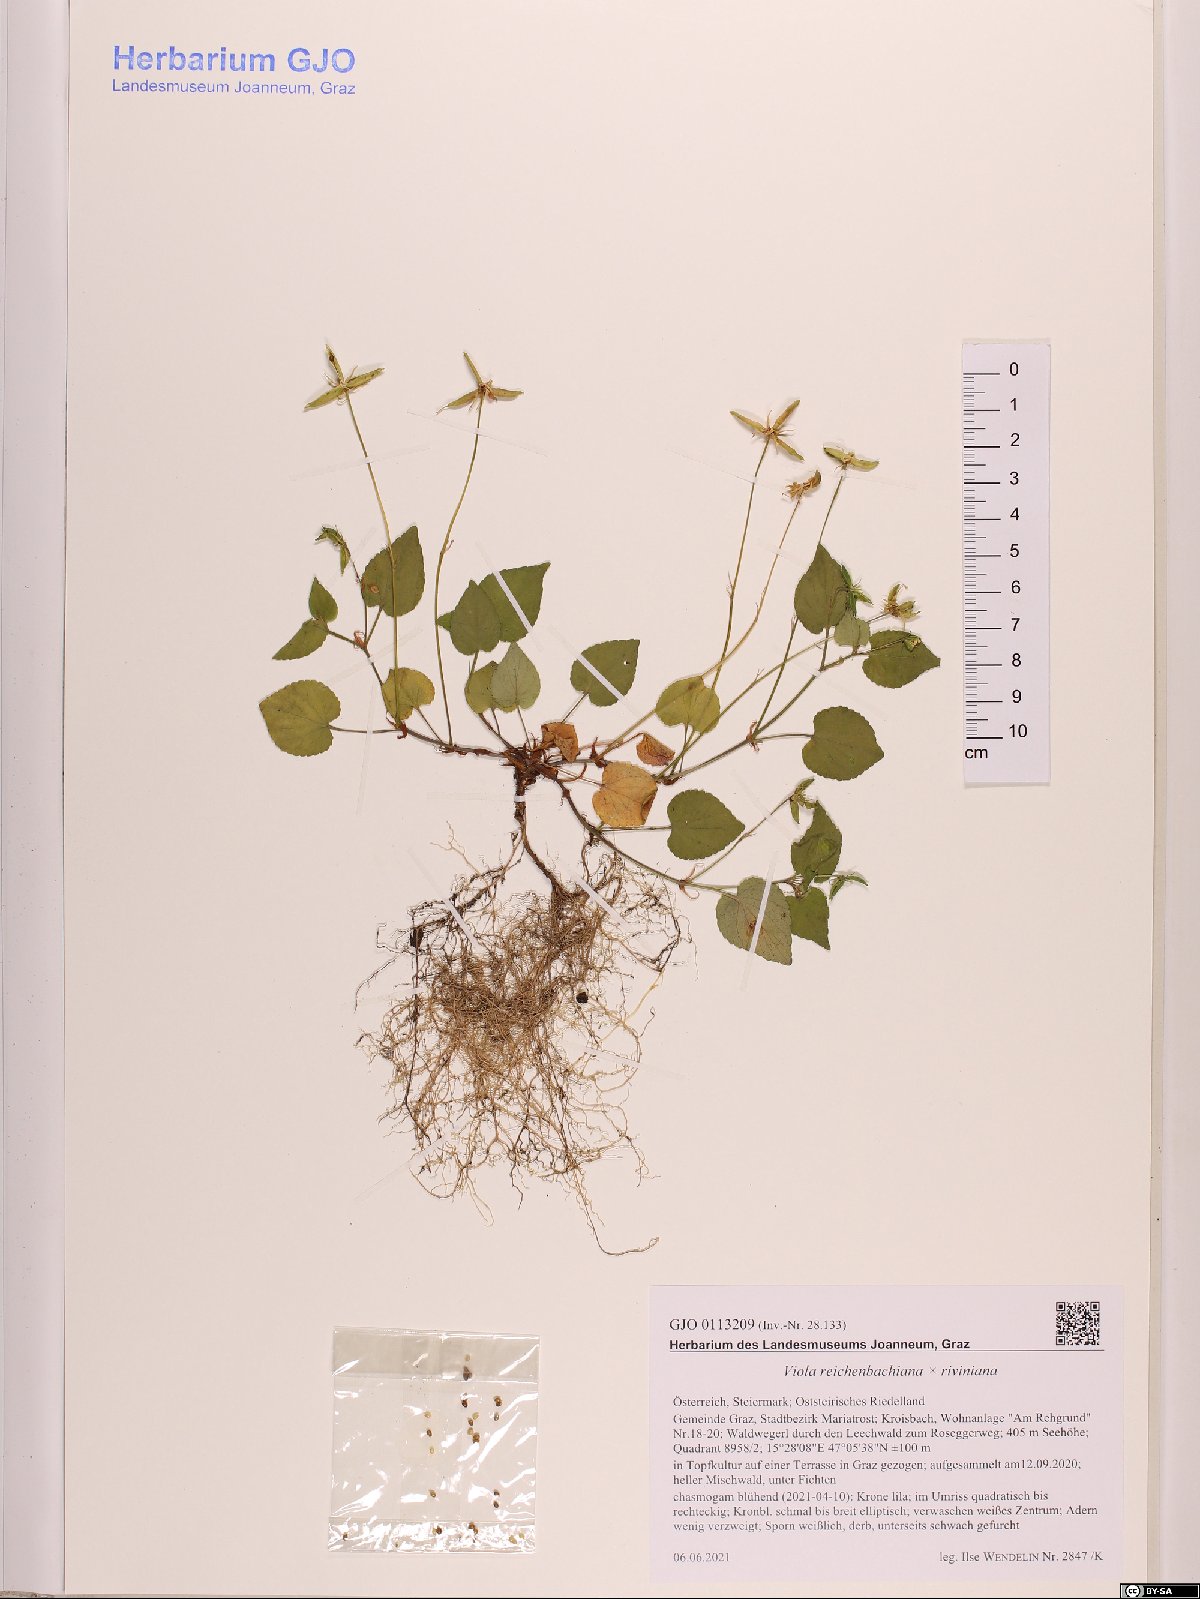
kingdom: Plantae
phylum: Tracheophyta
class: Magnoliopsida
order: Malpighiales
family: Violaceae
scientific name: Violaceae
